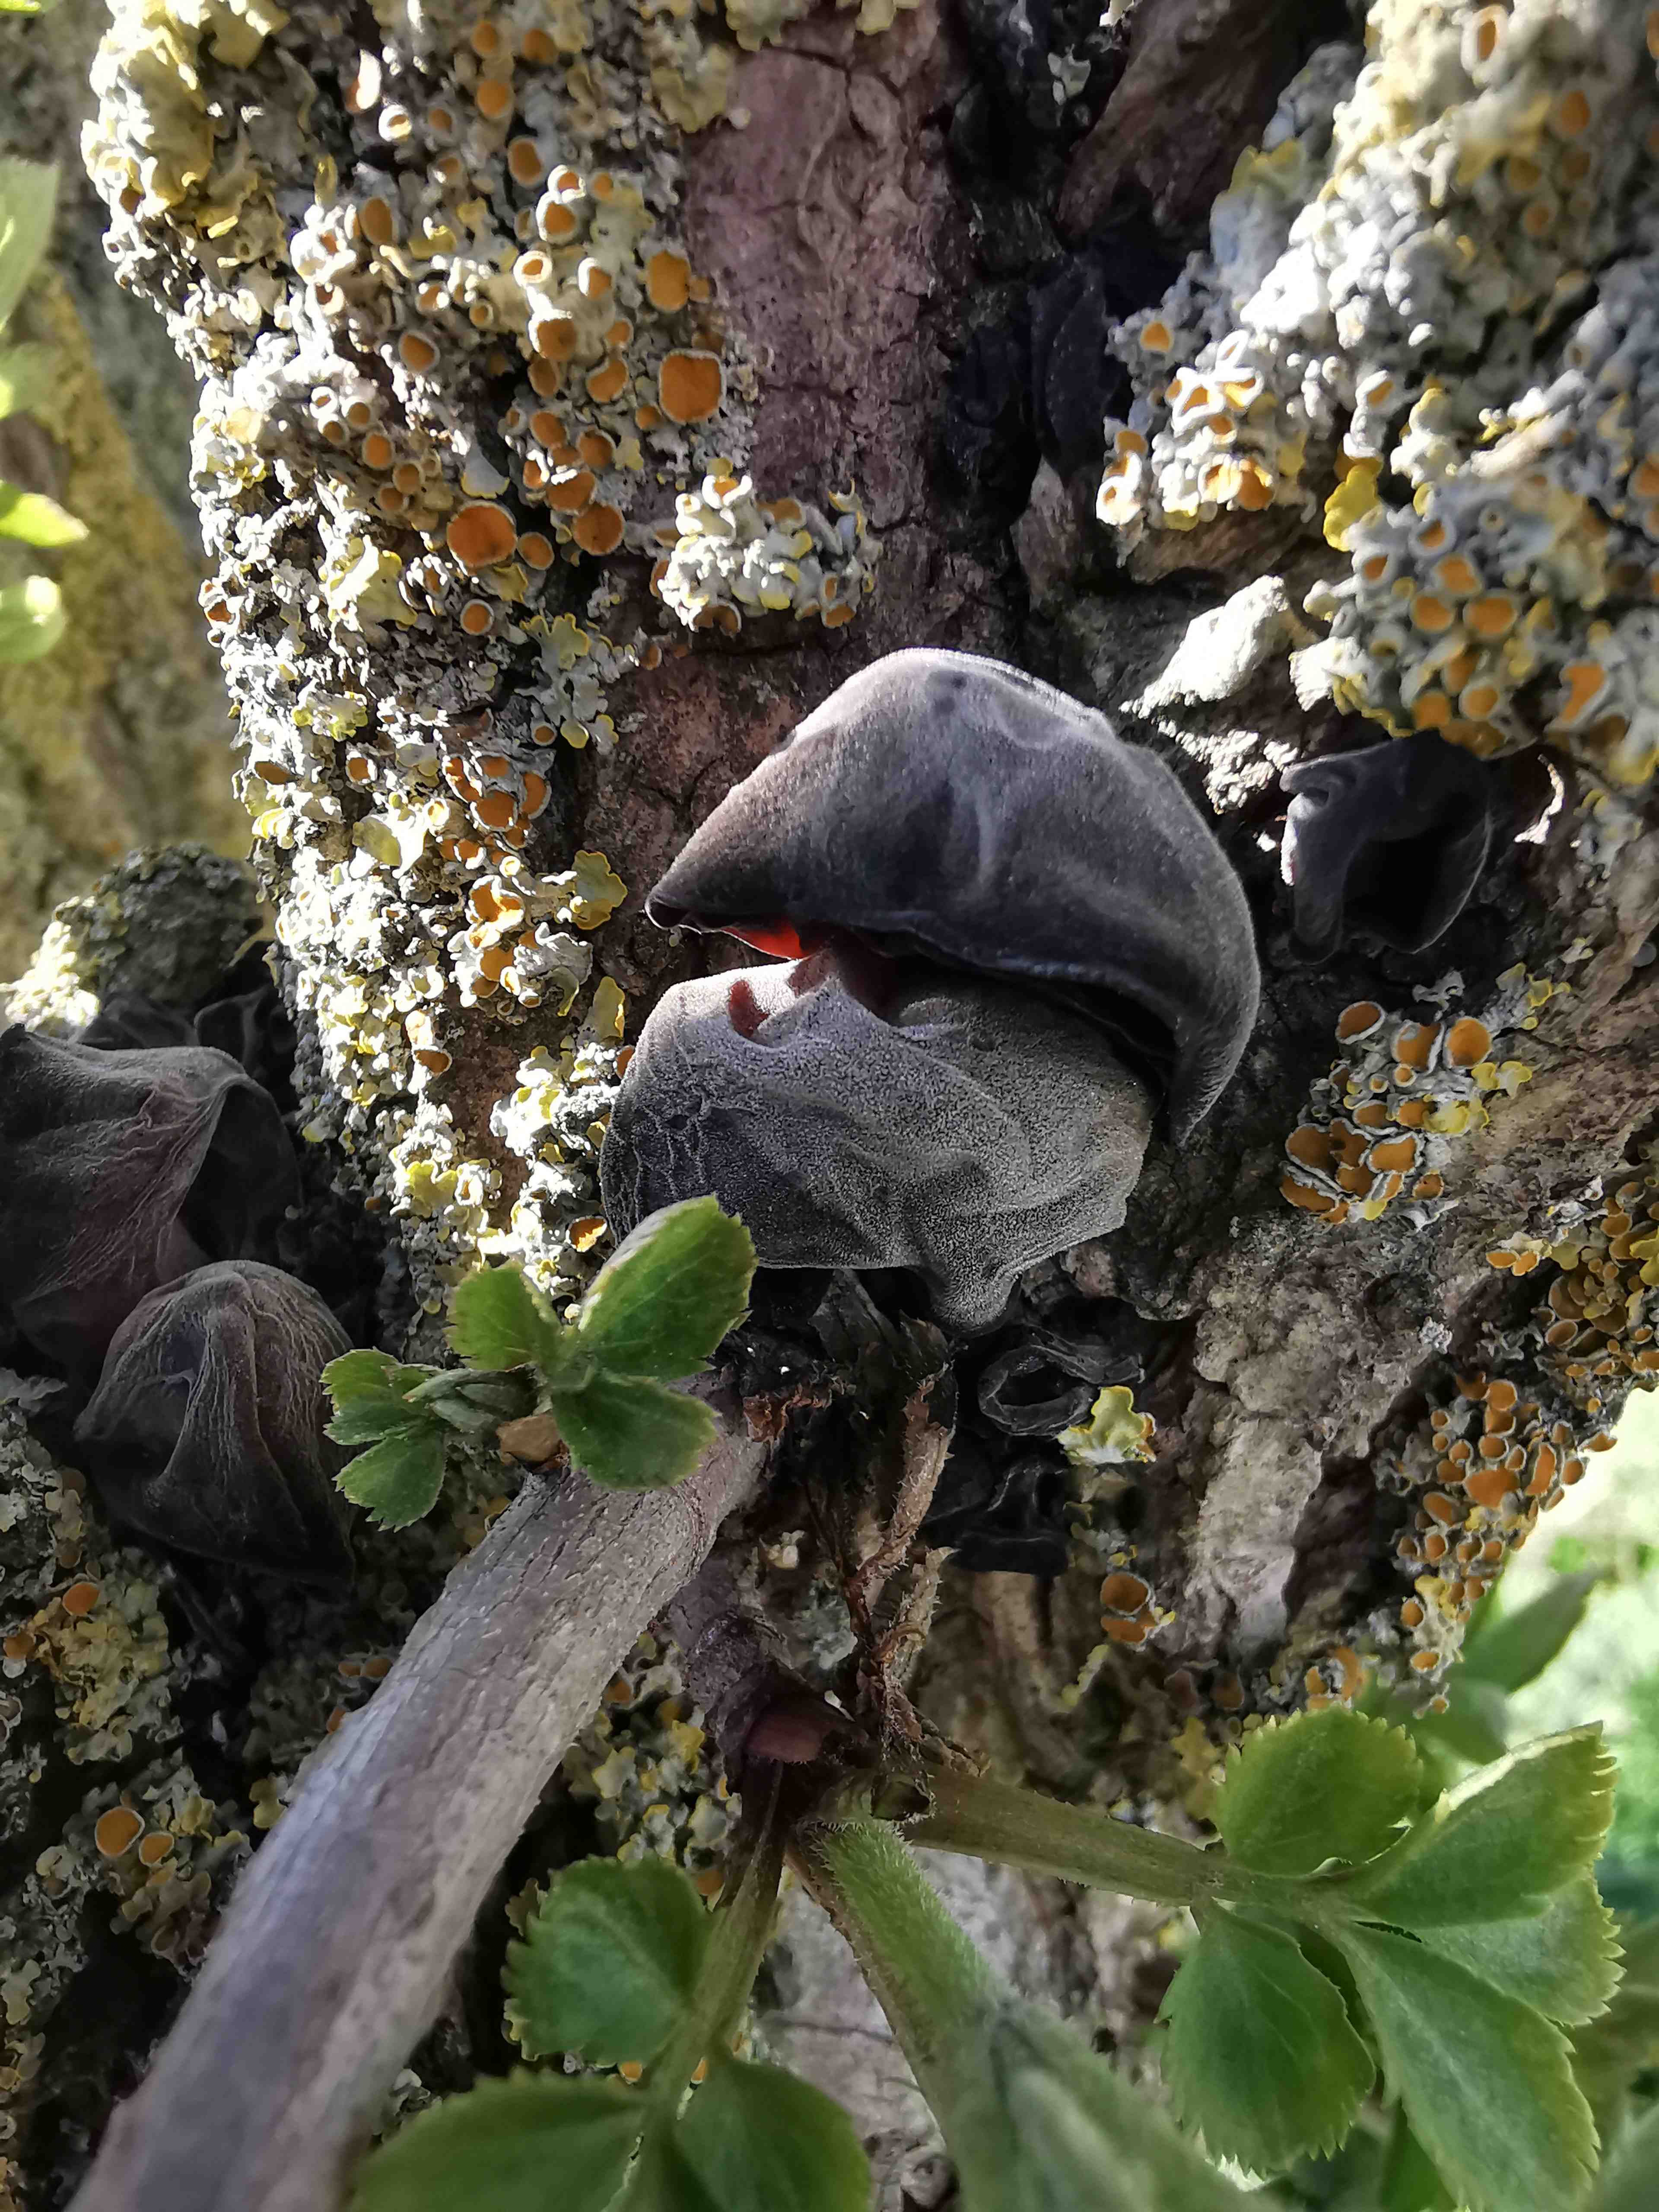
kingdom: Fungi
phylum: Basidiomycota
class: Agaricomycetes
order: Auriculariales
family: Auriculariaceae
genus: Auricularia
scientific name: Auricularia auricula-judae
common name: almindelig judasøre
